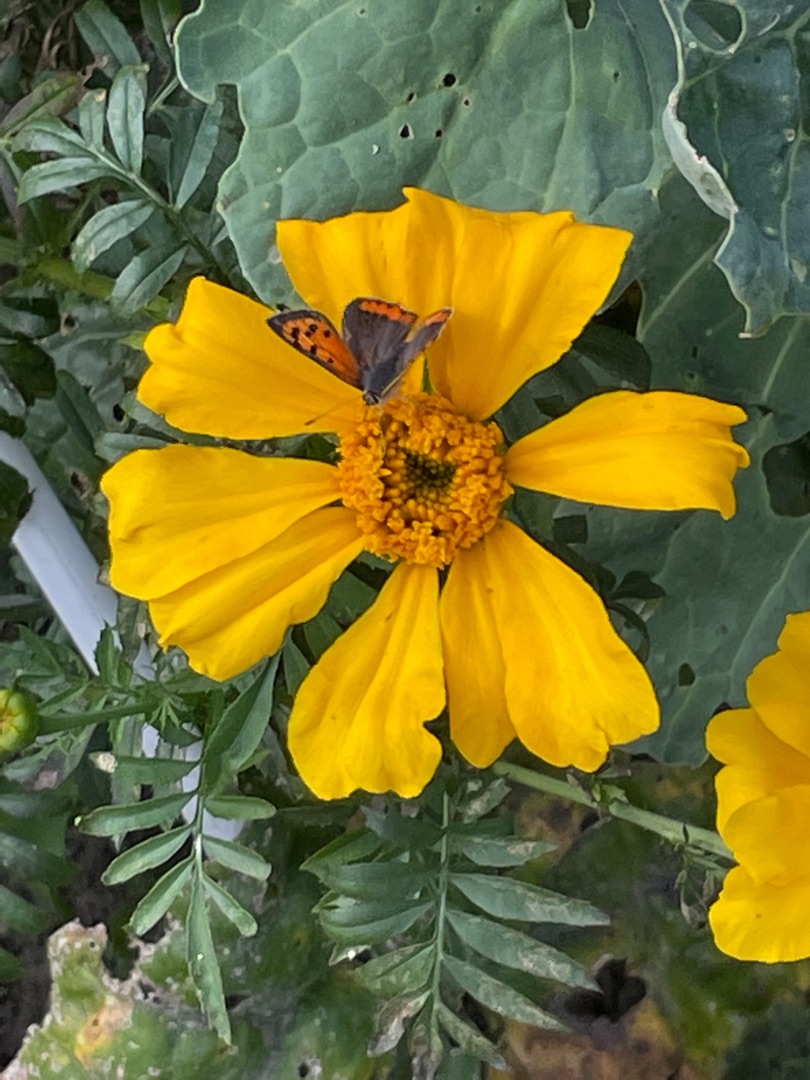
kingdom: Animalia
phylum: Arthropoda
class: Insecta
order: Lepidoptera
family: Lycaenidae
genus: Lycaena
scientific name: Lycaena phlaeas
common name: Lille ildfugl
